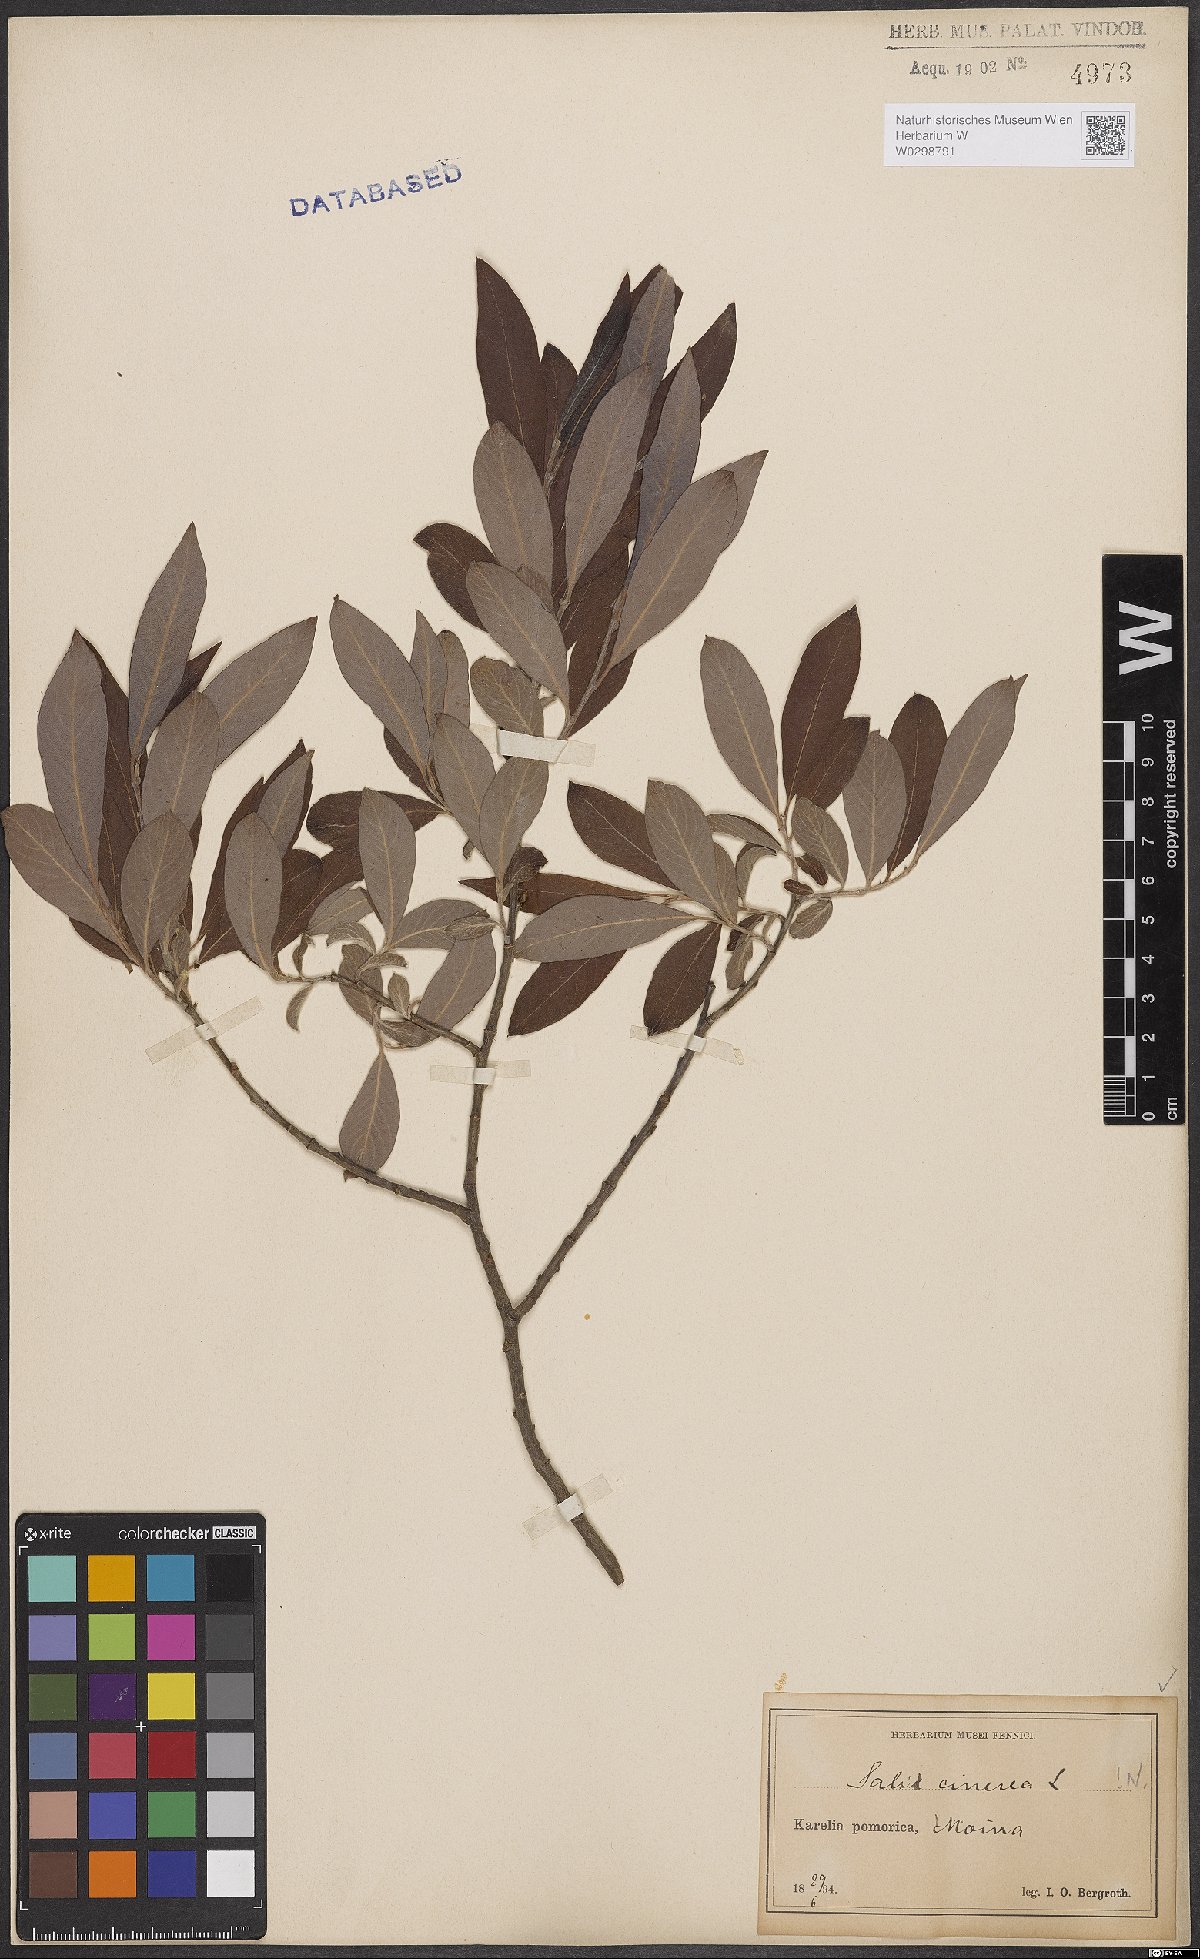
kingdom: Plantae
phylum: Tracheophyta
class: Magnoliopsida
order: Malpighiales
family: Salicaceae
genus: Salix
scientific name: Salix cinerea
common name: Common sallow
